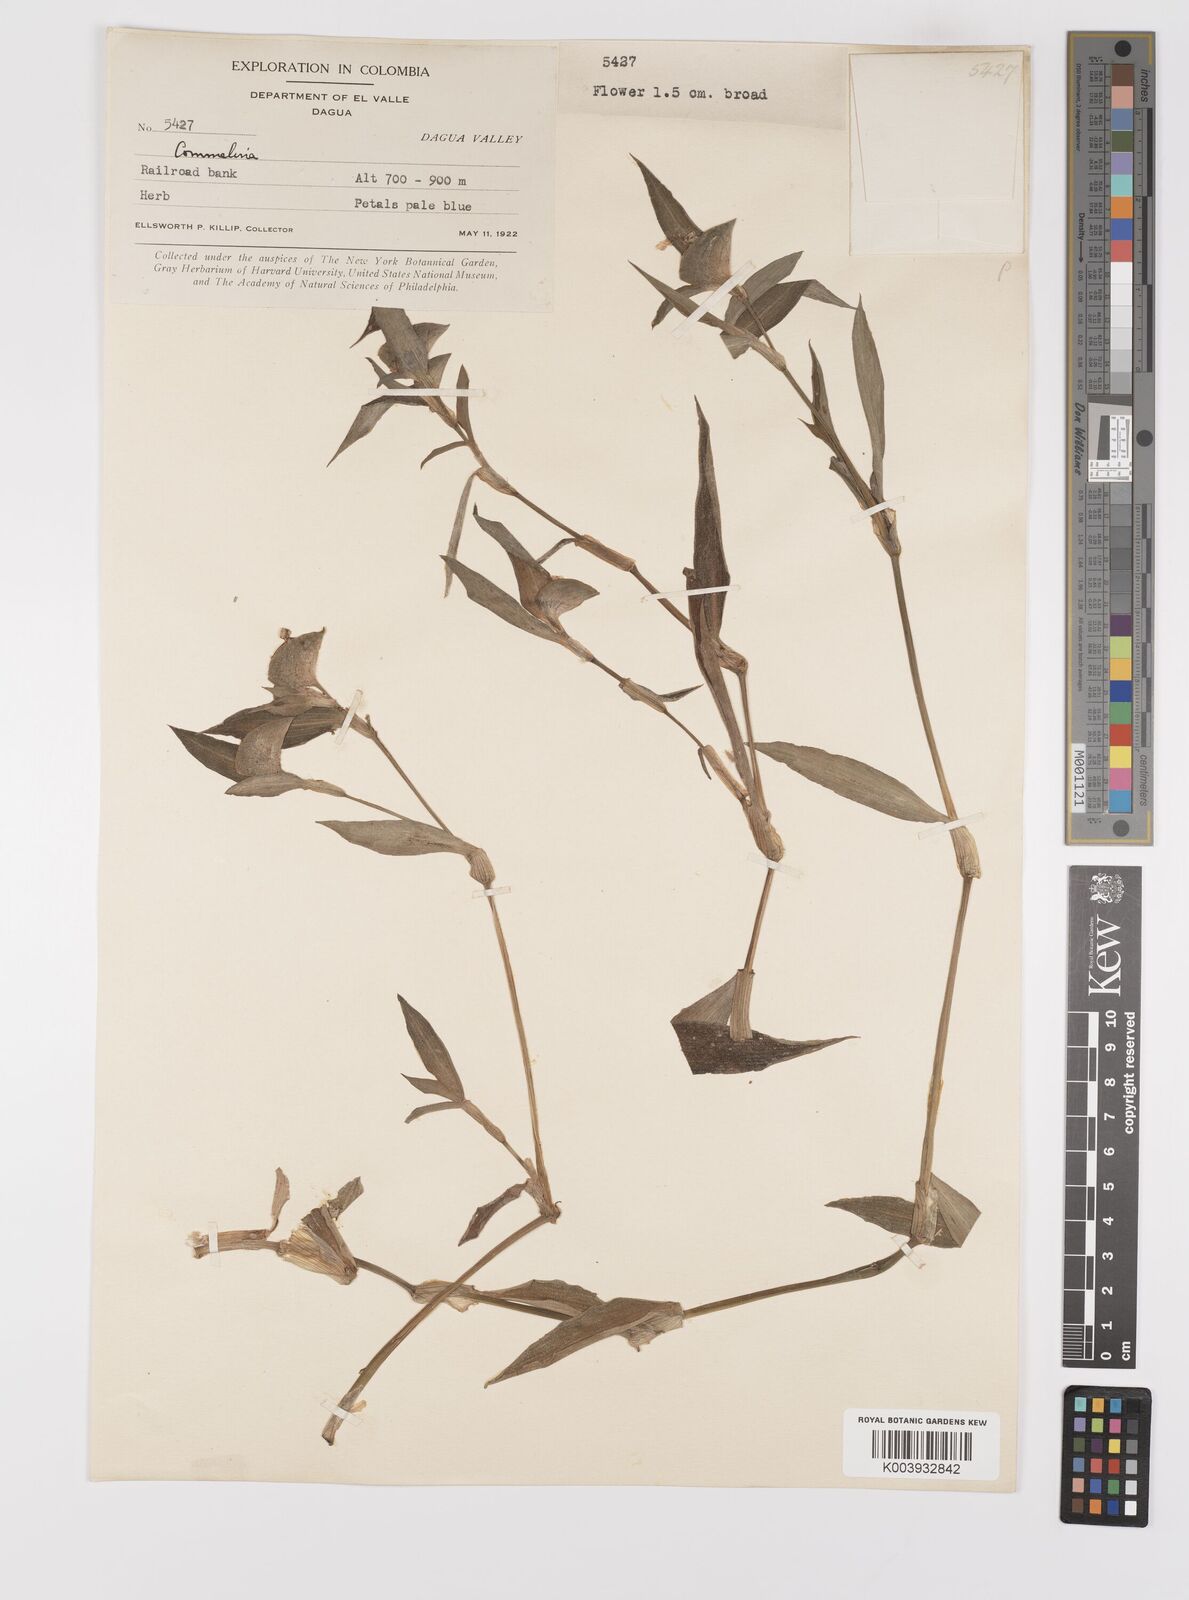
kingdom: Plantae
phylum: Tracheophyta
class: Liliopsida
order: Commelinales
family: Commelinaceae
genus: Commelina
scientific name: Commelina
